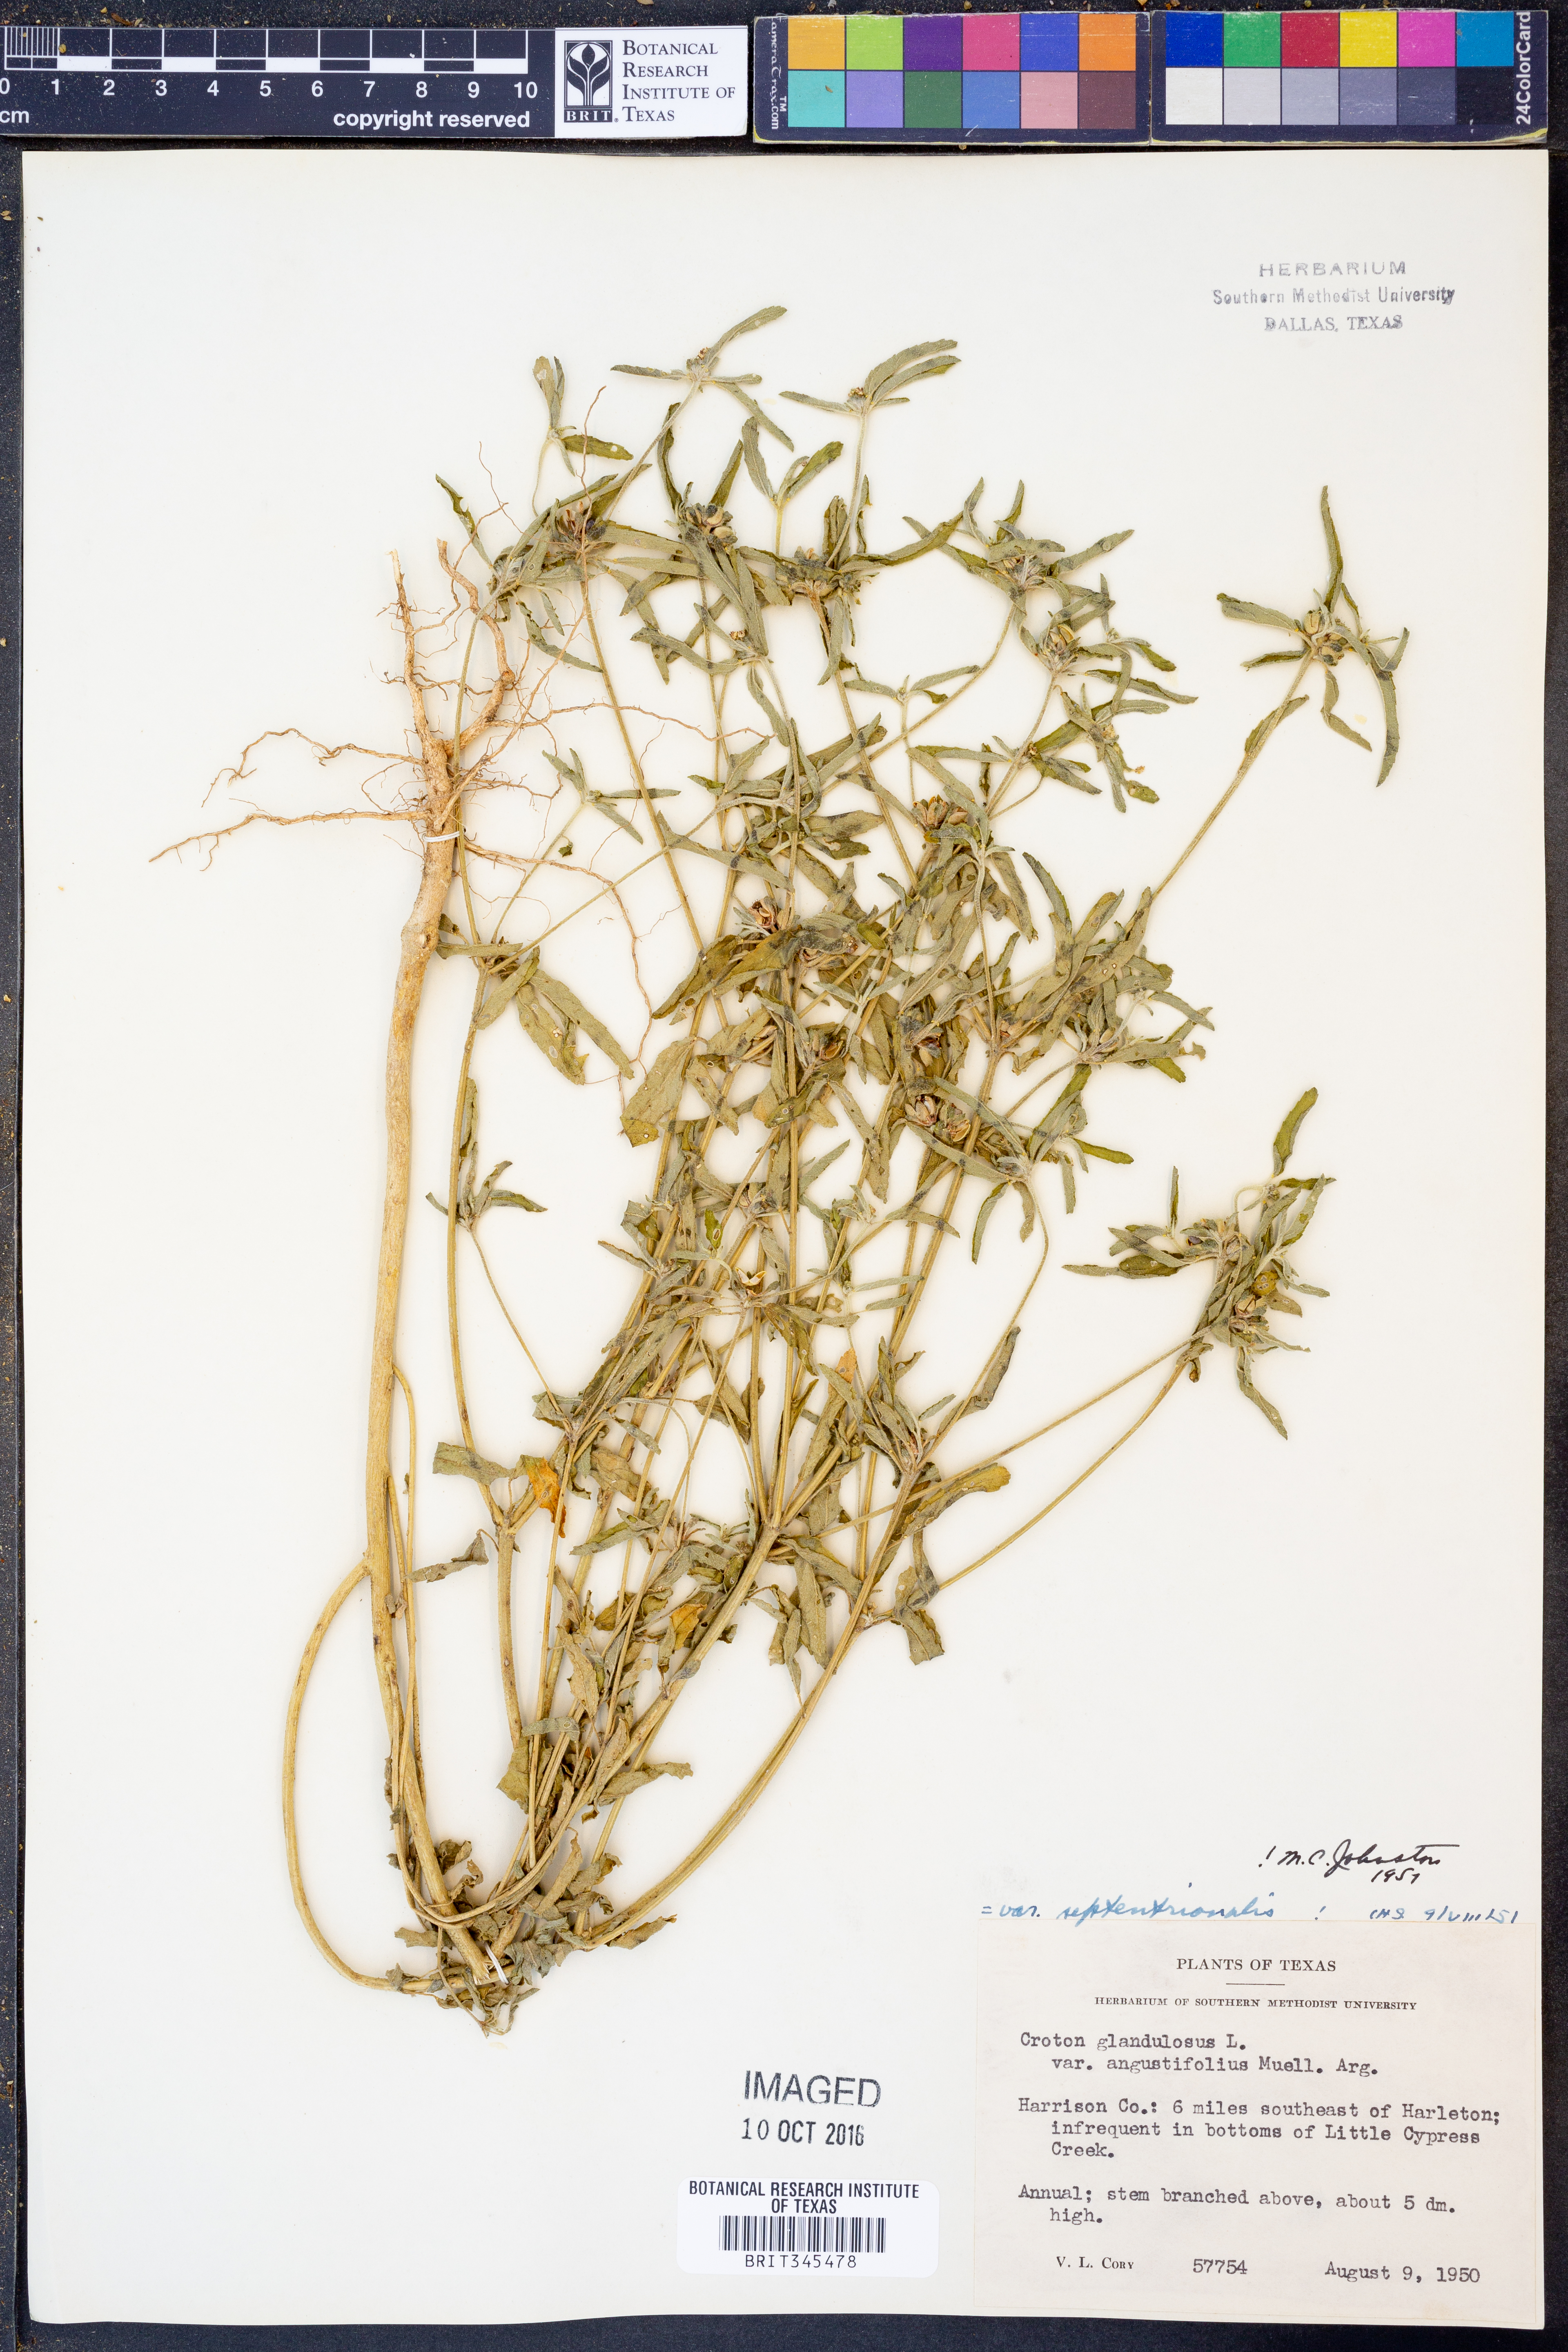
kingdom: Plantae
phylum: Tracheophyta
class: Magnoliopsida
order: Malpighiales
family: Euphorbiaceae
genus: Croton
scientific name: Croton glandulosus
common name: Tropic croton
